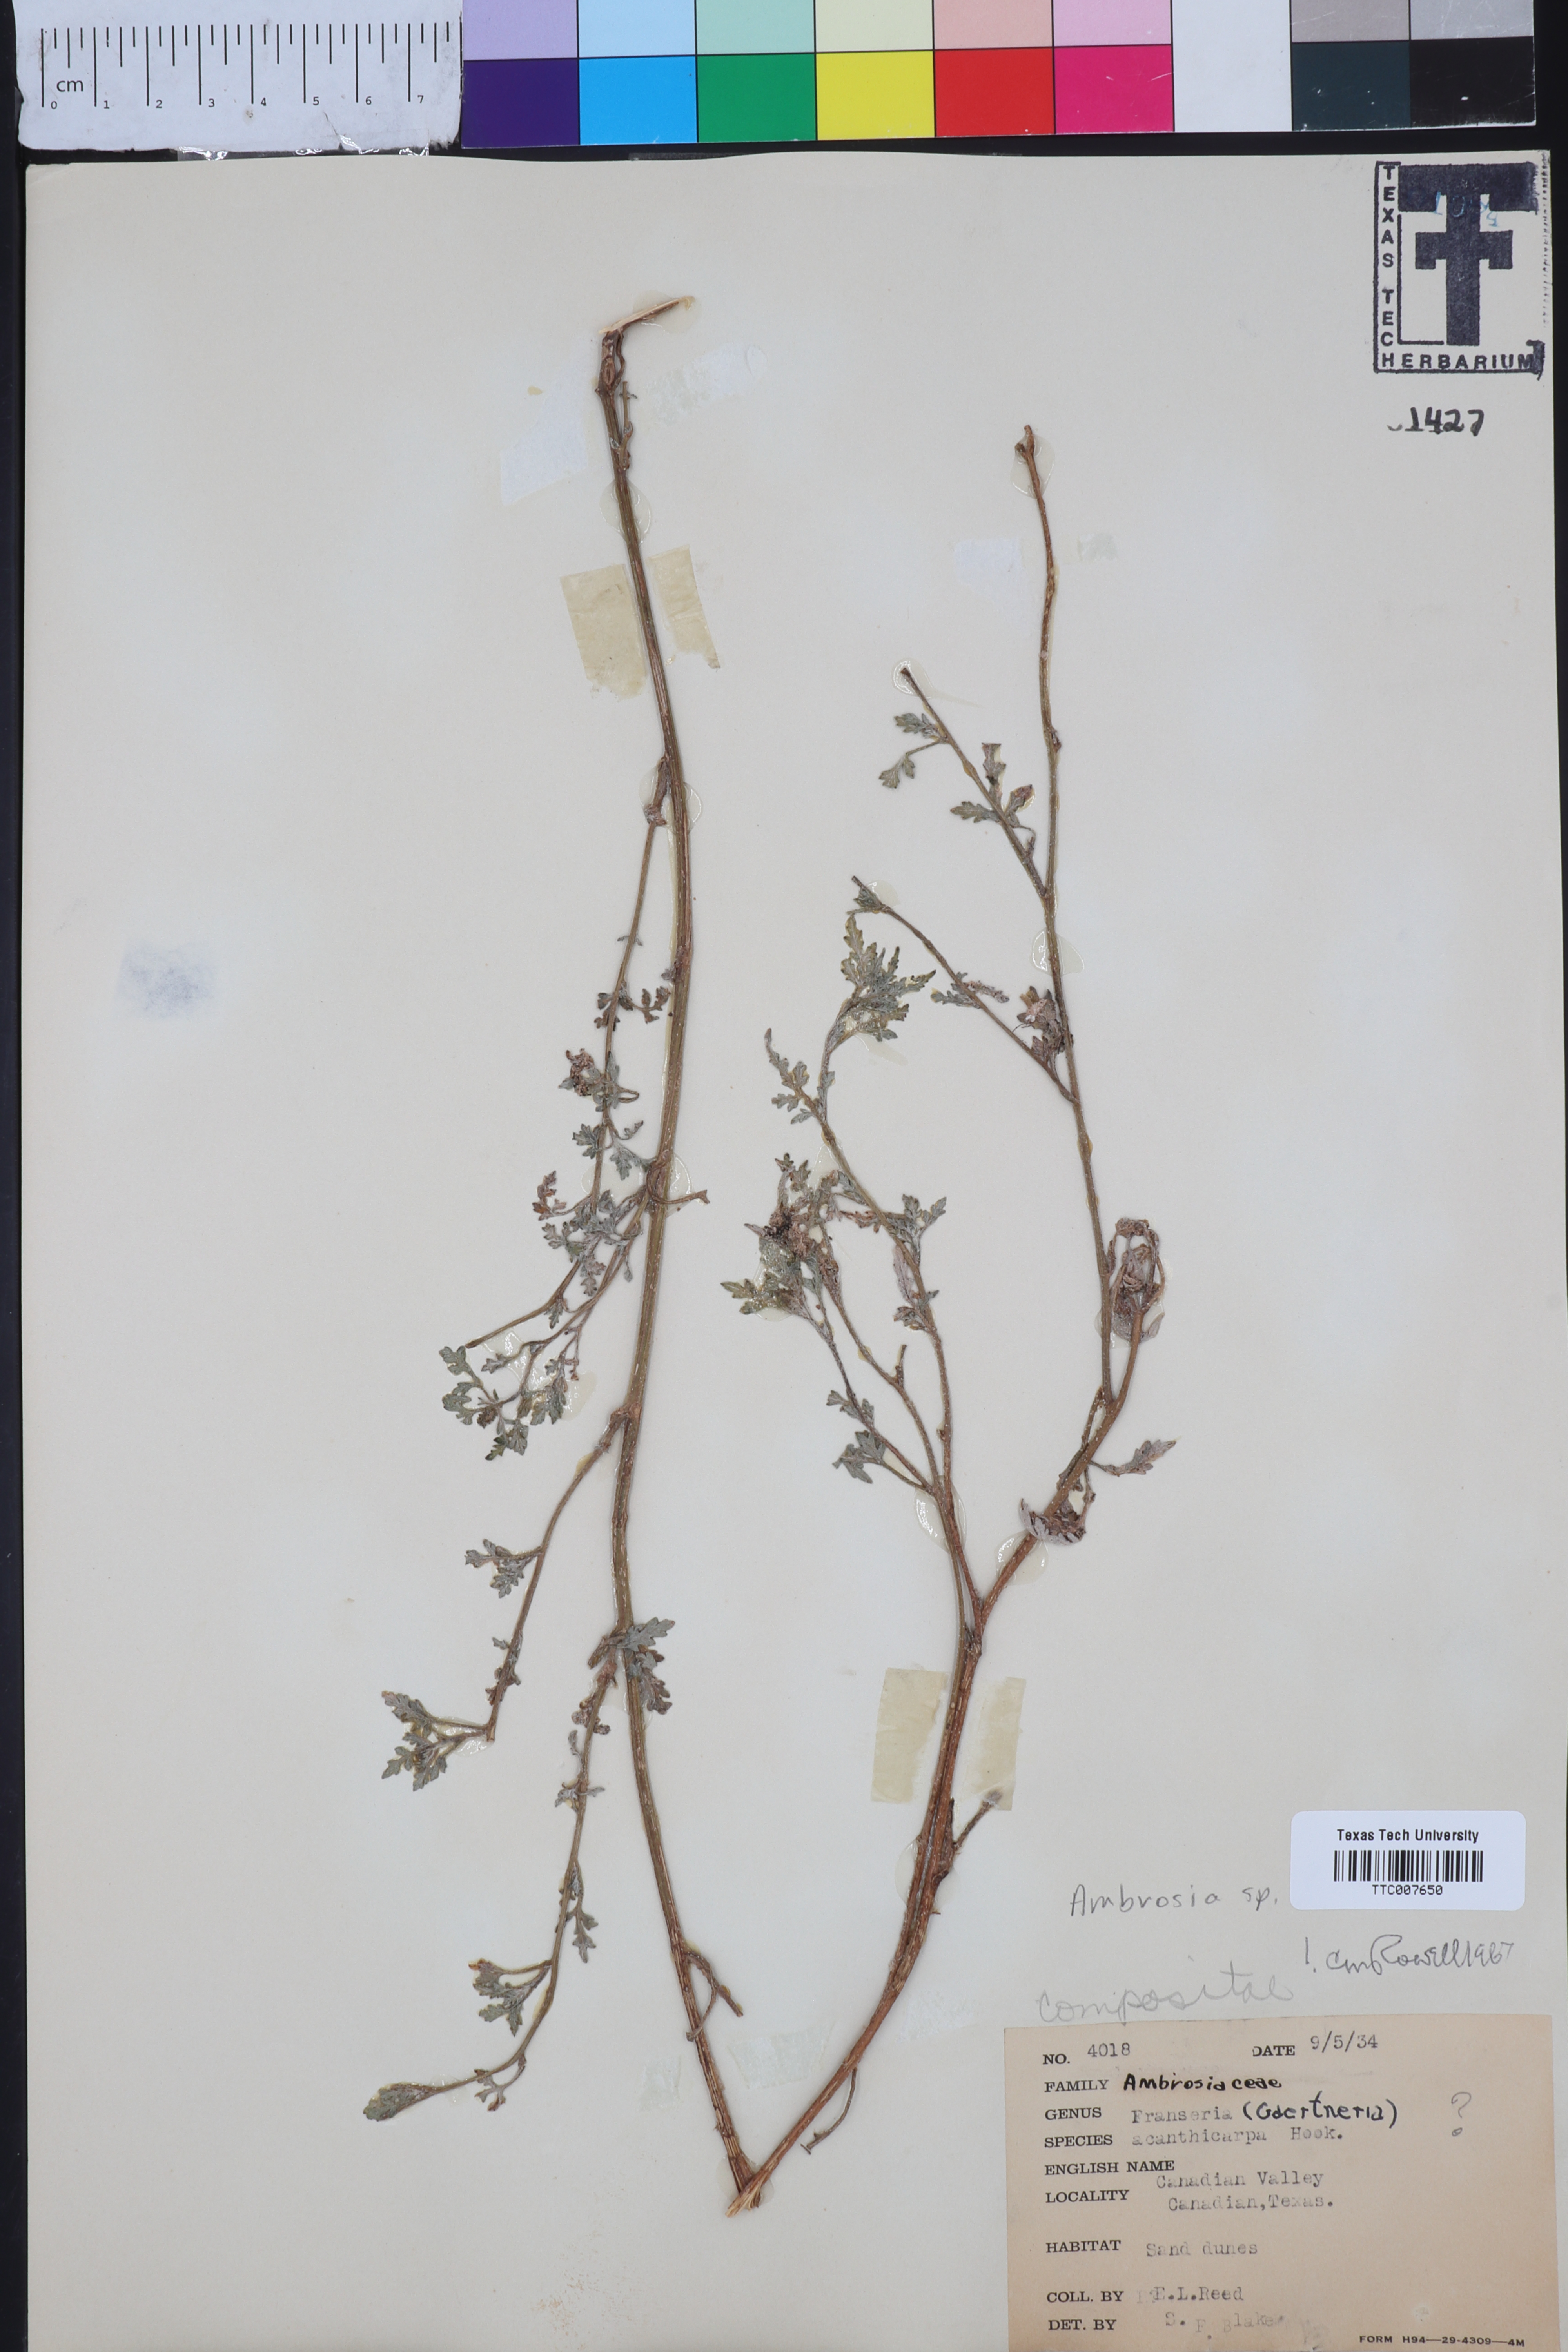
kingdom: Plantae
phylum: Tracheophyta
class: Magnoliopsida
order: Asterales
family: Asteraceae
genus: Ambrosia
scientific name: Ambrosia
